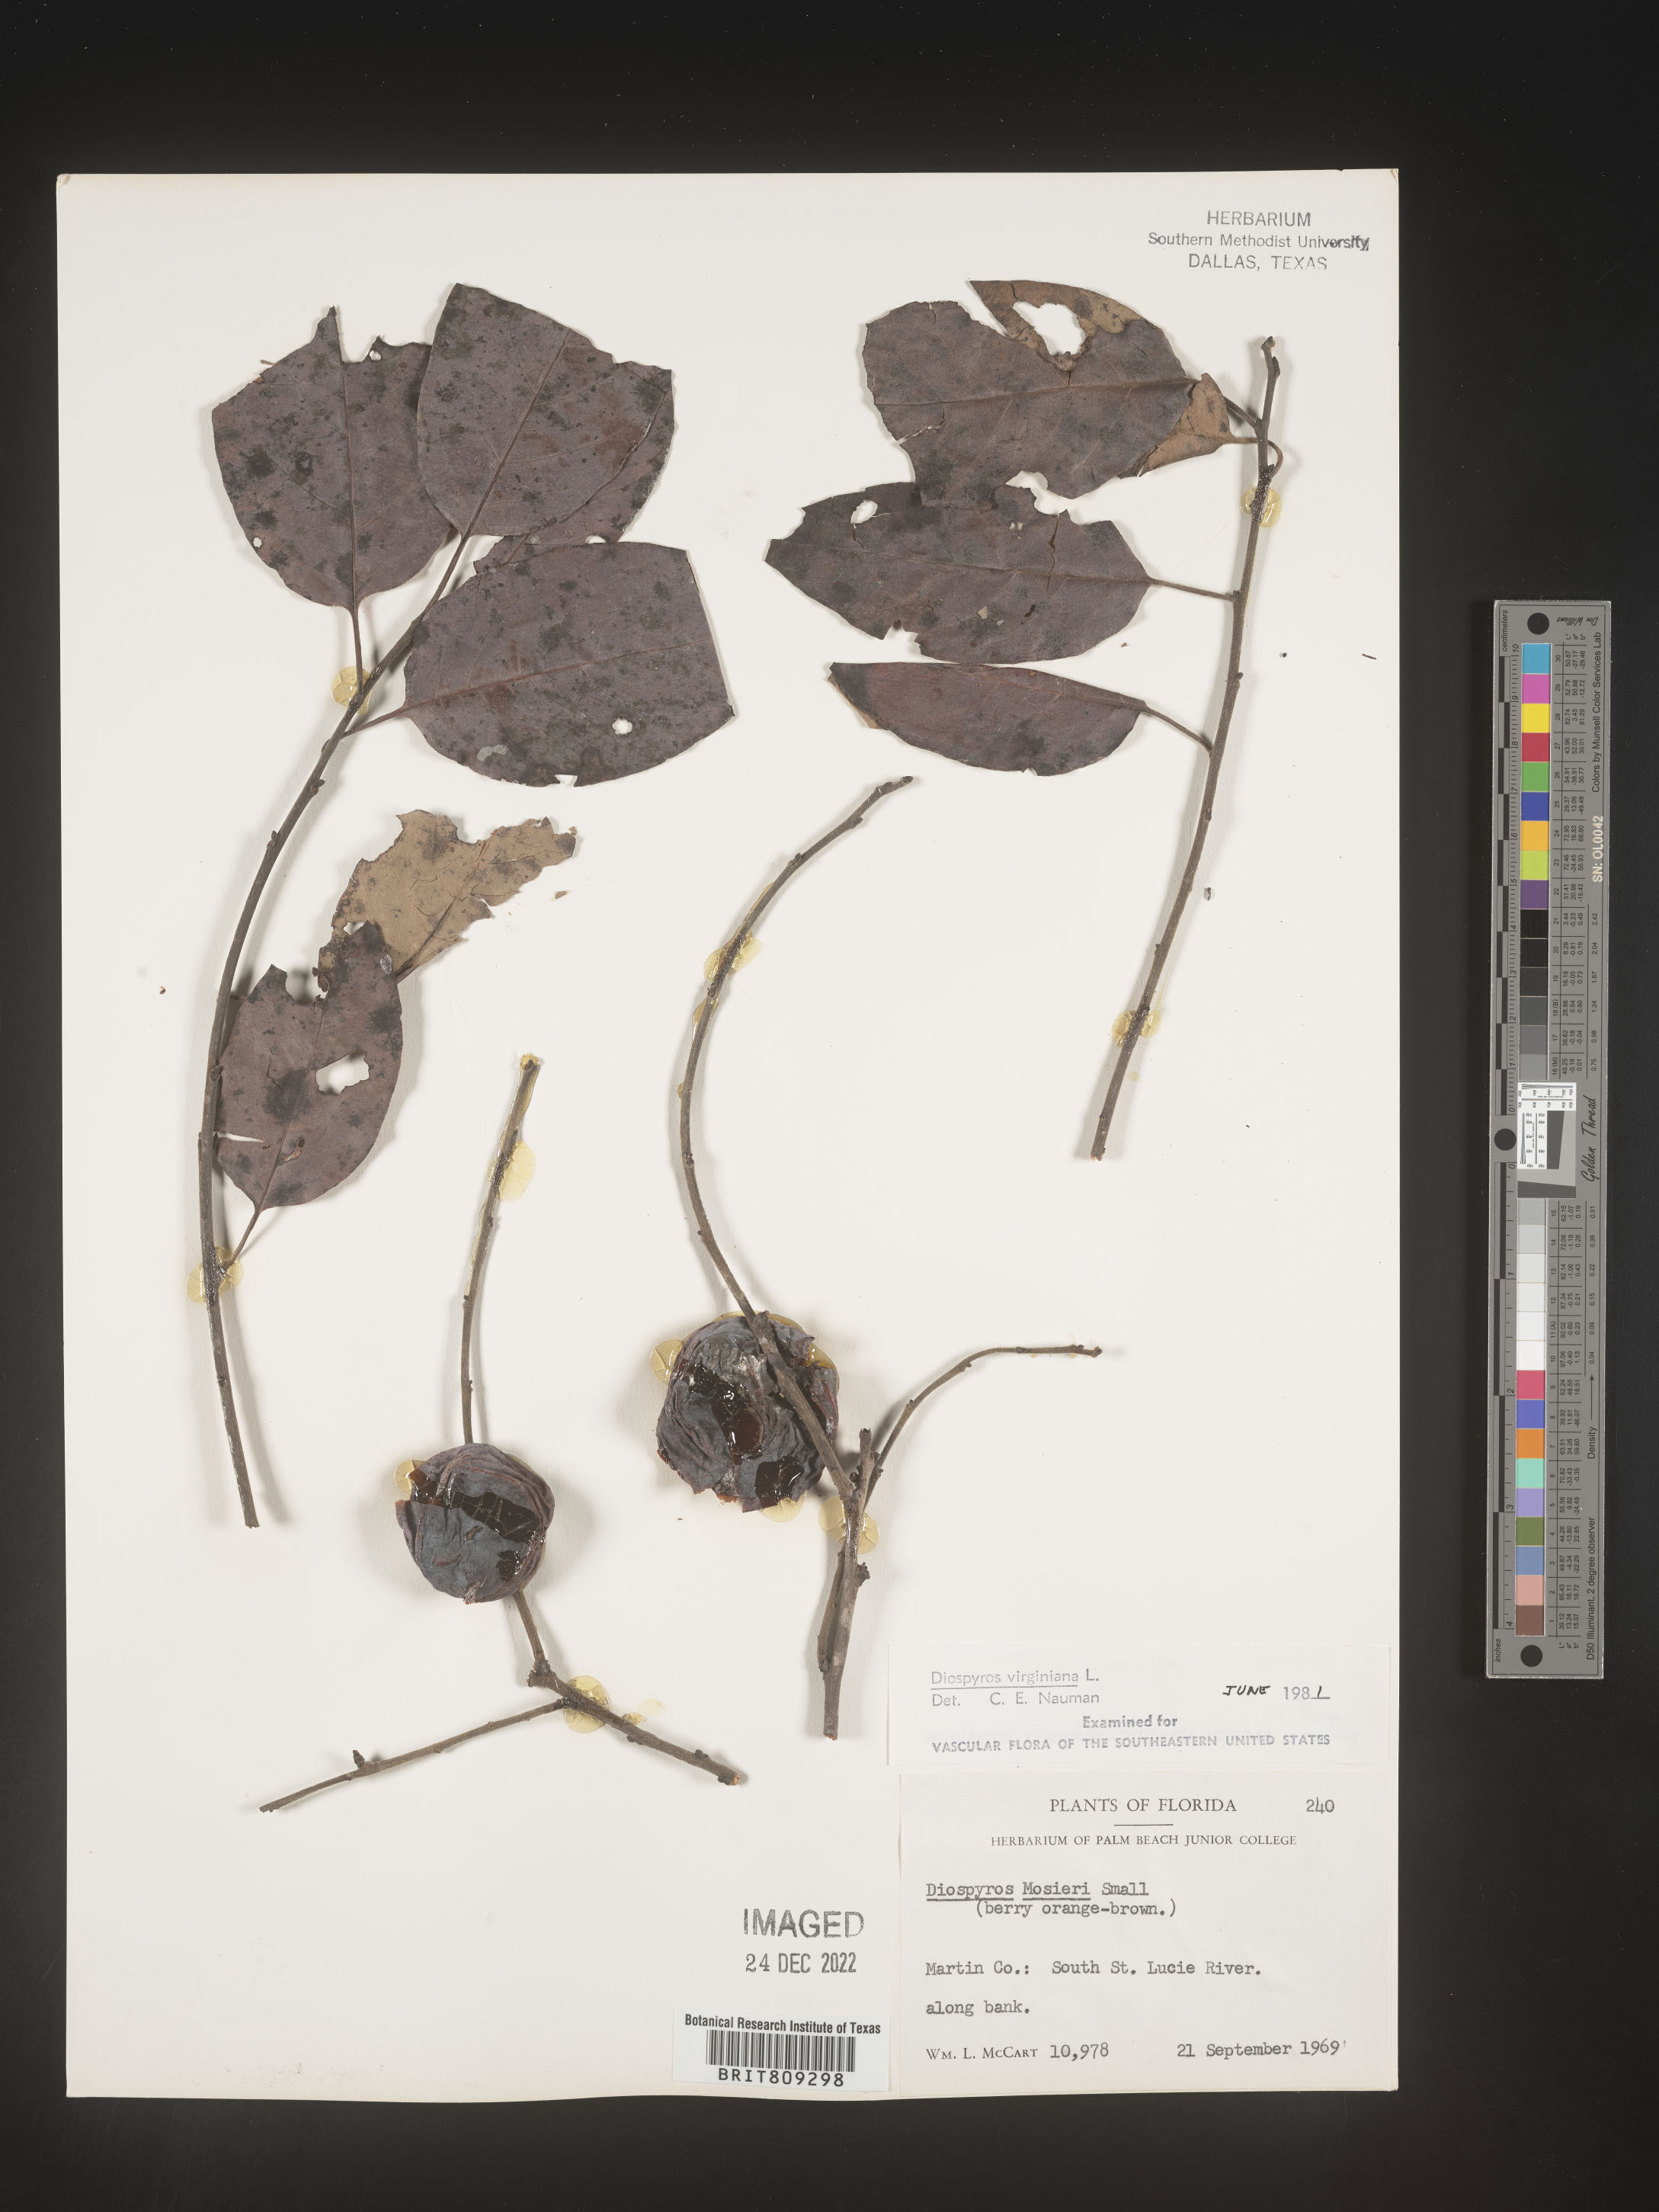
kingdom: Plantae
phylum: Tracheophyta
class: Magnoliopsida
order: Ericales
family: Ebenaceae
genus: Diospyros
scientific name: Diospyros virginiana
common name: Persimmon
